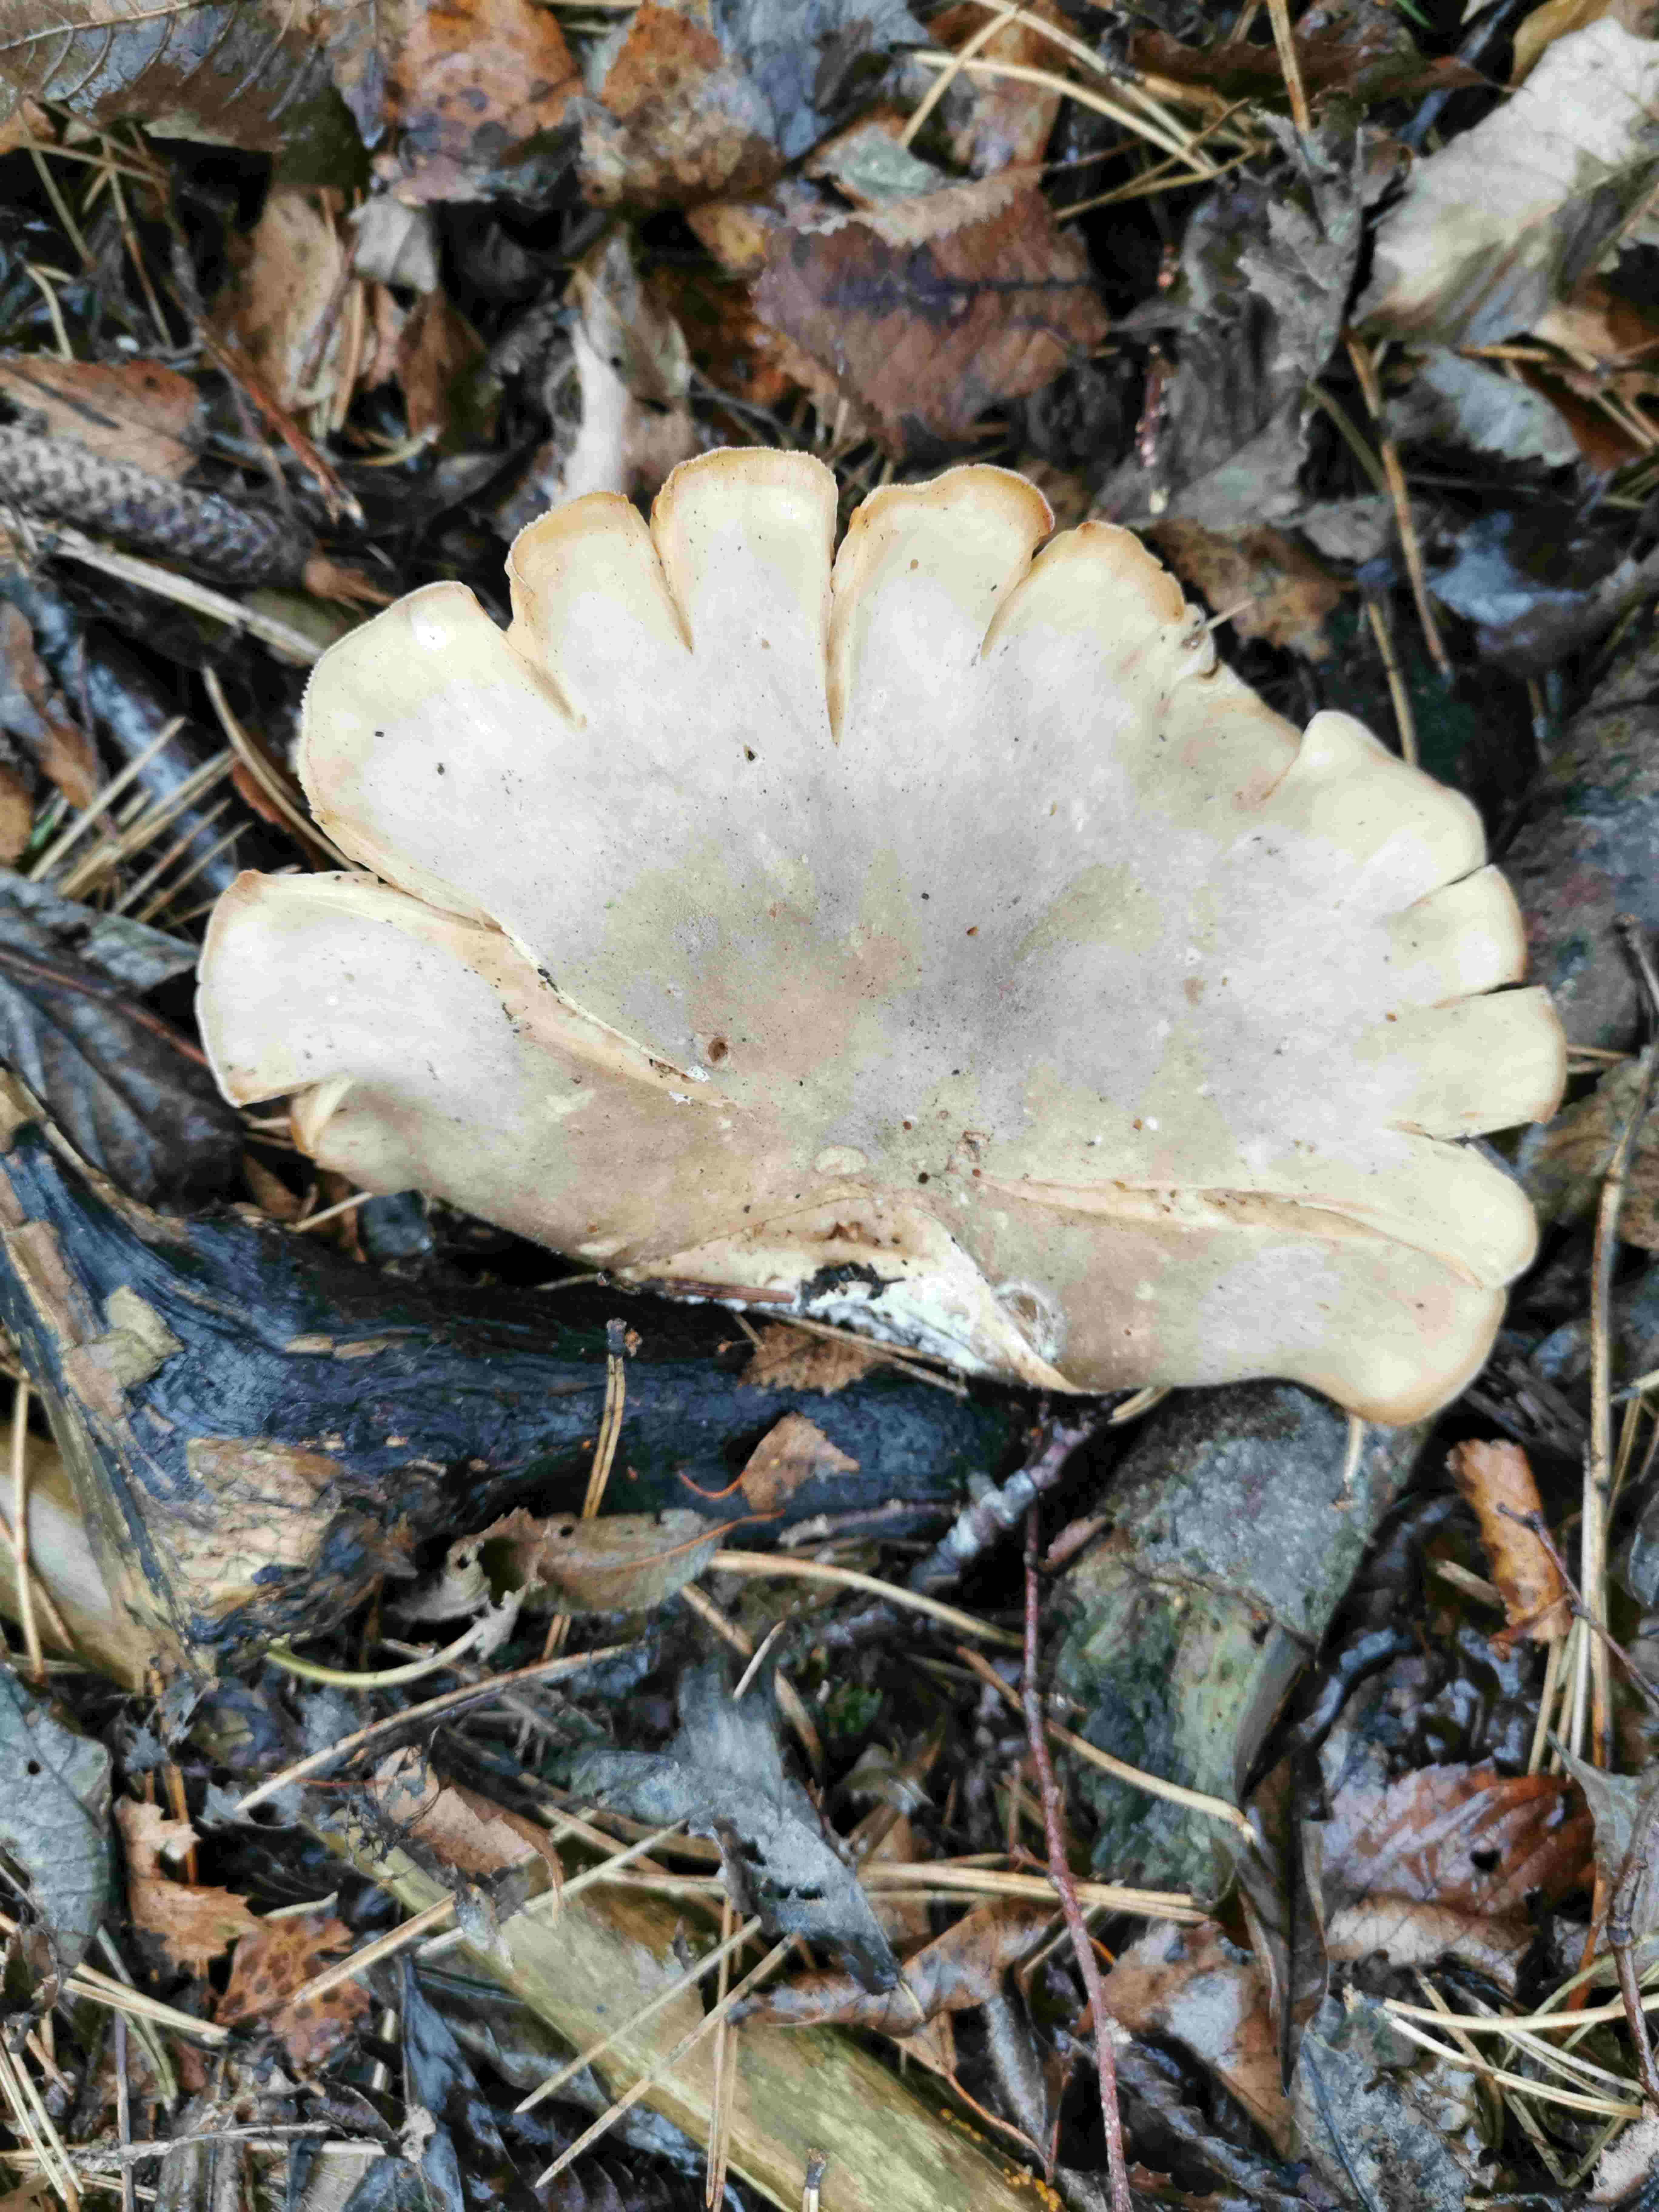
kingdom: Fungi
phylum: Basidiomycota
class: Agaricomycetes
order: Agaricales
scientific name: Agaricales
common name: champignonordenen
